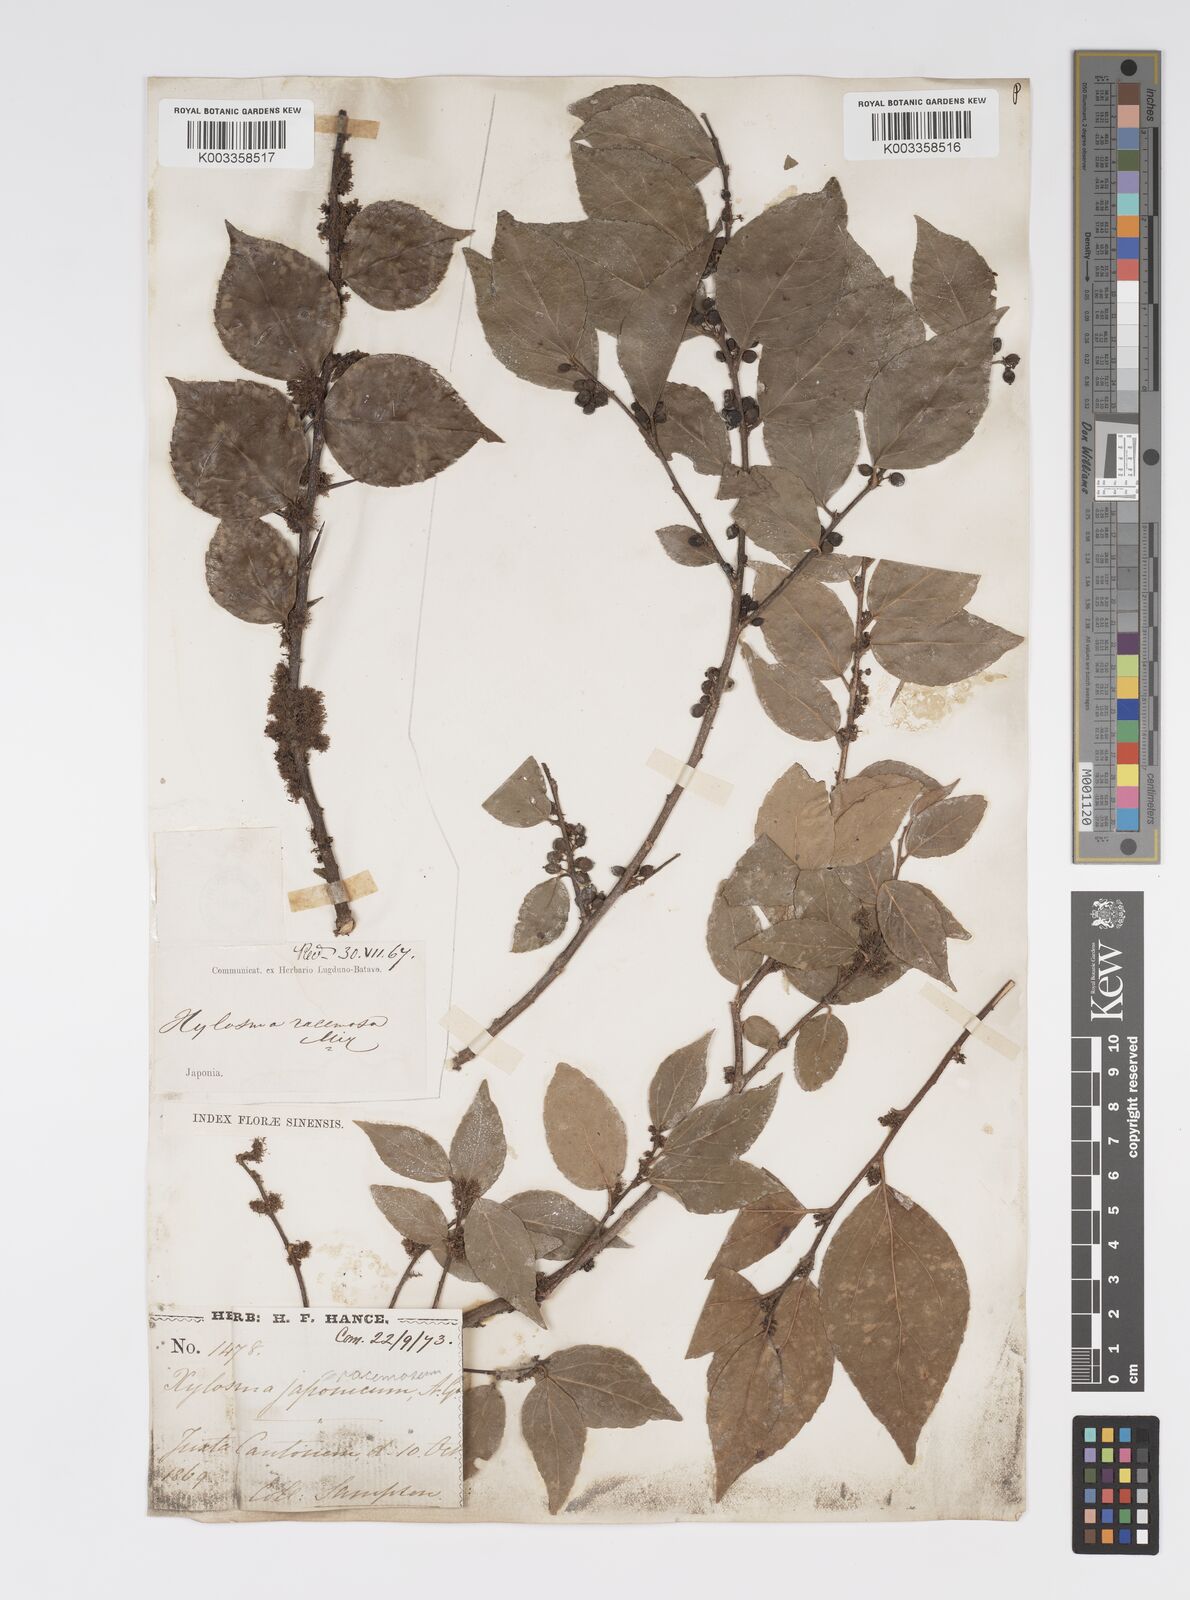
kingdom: Plantae
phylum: Tracheophyta
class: Magnoliopsida
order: Malpighiales
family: Salicaceae
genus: Xylosma
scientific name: Xylosma racemosum
